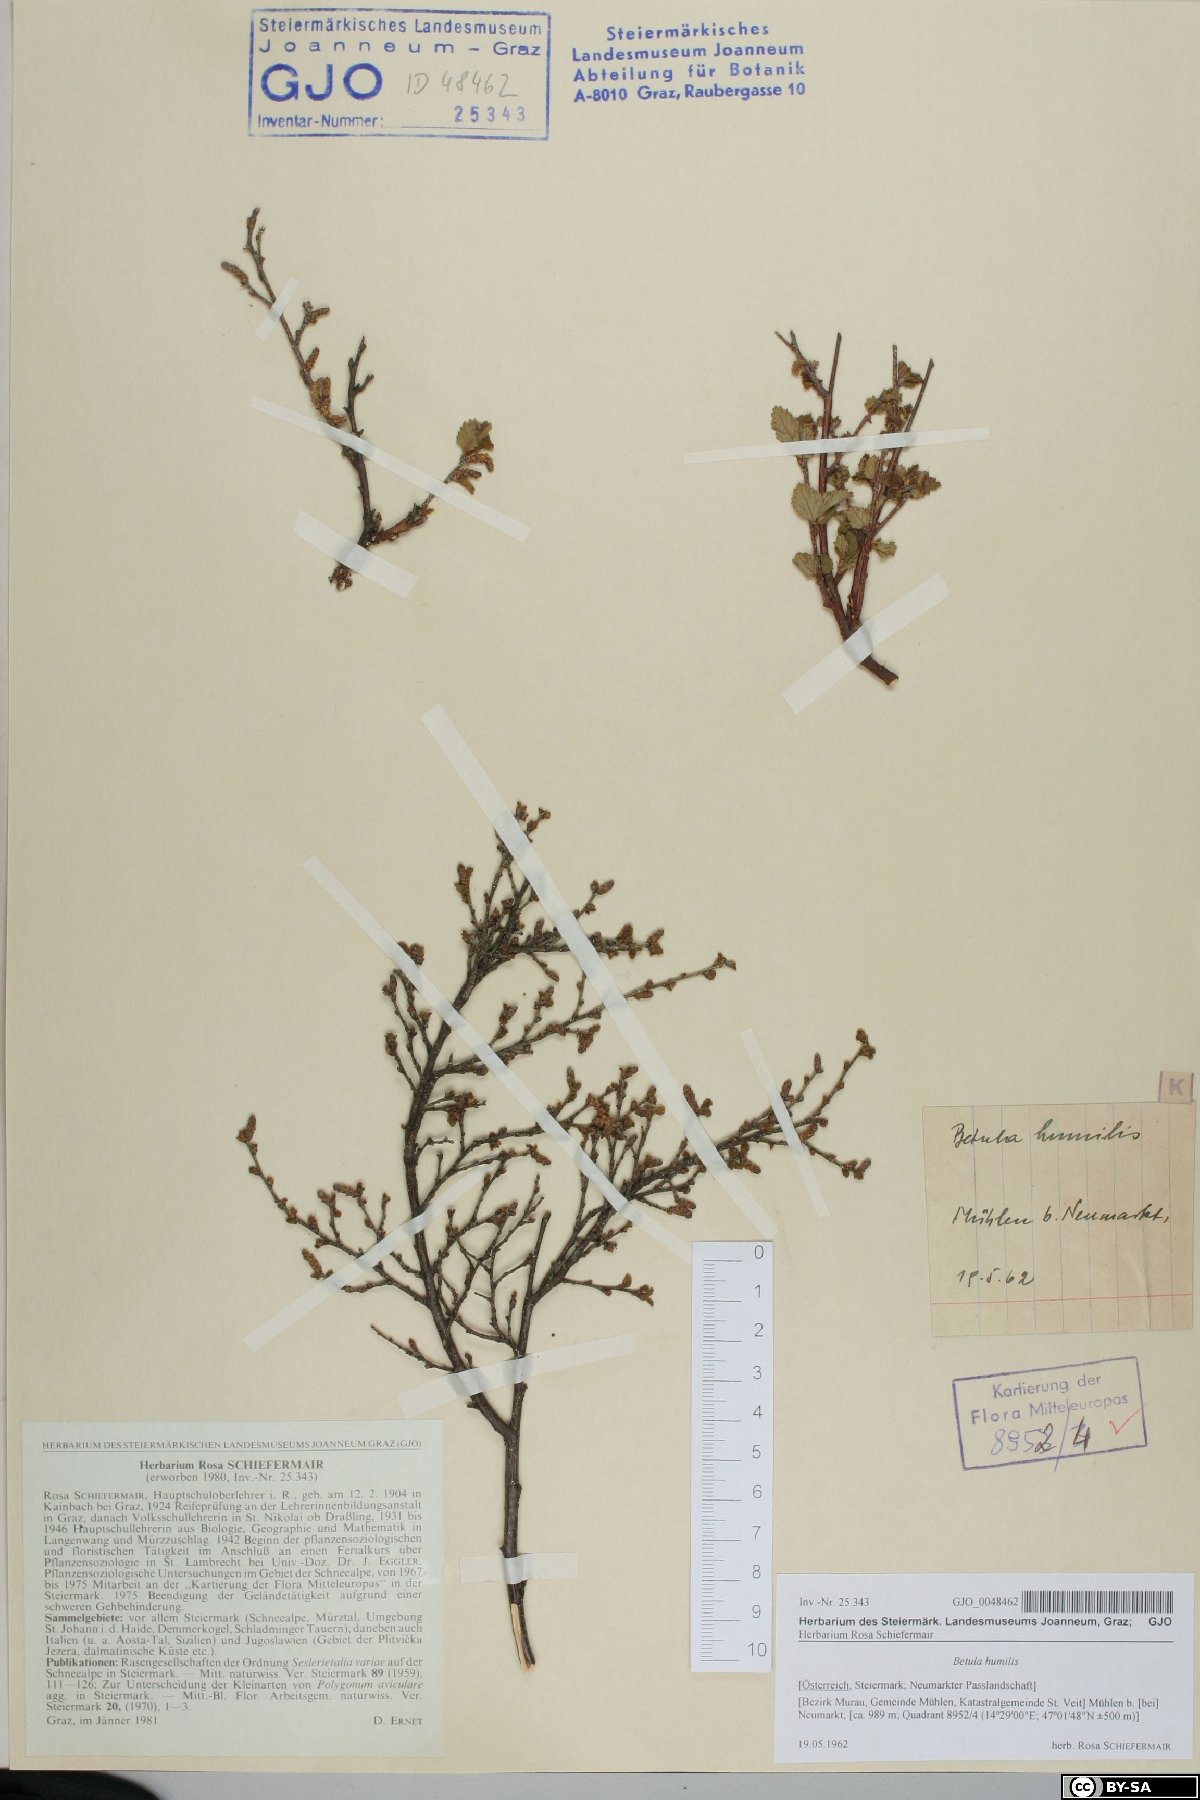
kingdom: Plantae
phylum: Tracheophyta
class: Magnoliopsida
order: Fagales
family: Betulaceae
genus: Betula
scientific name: Betula humilis
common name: Shrubby birch
